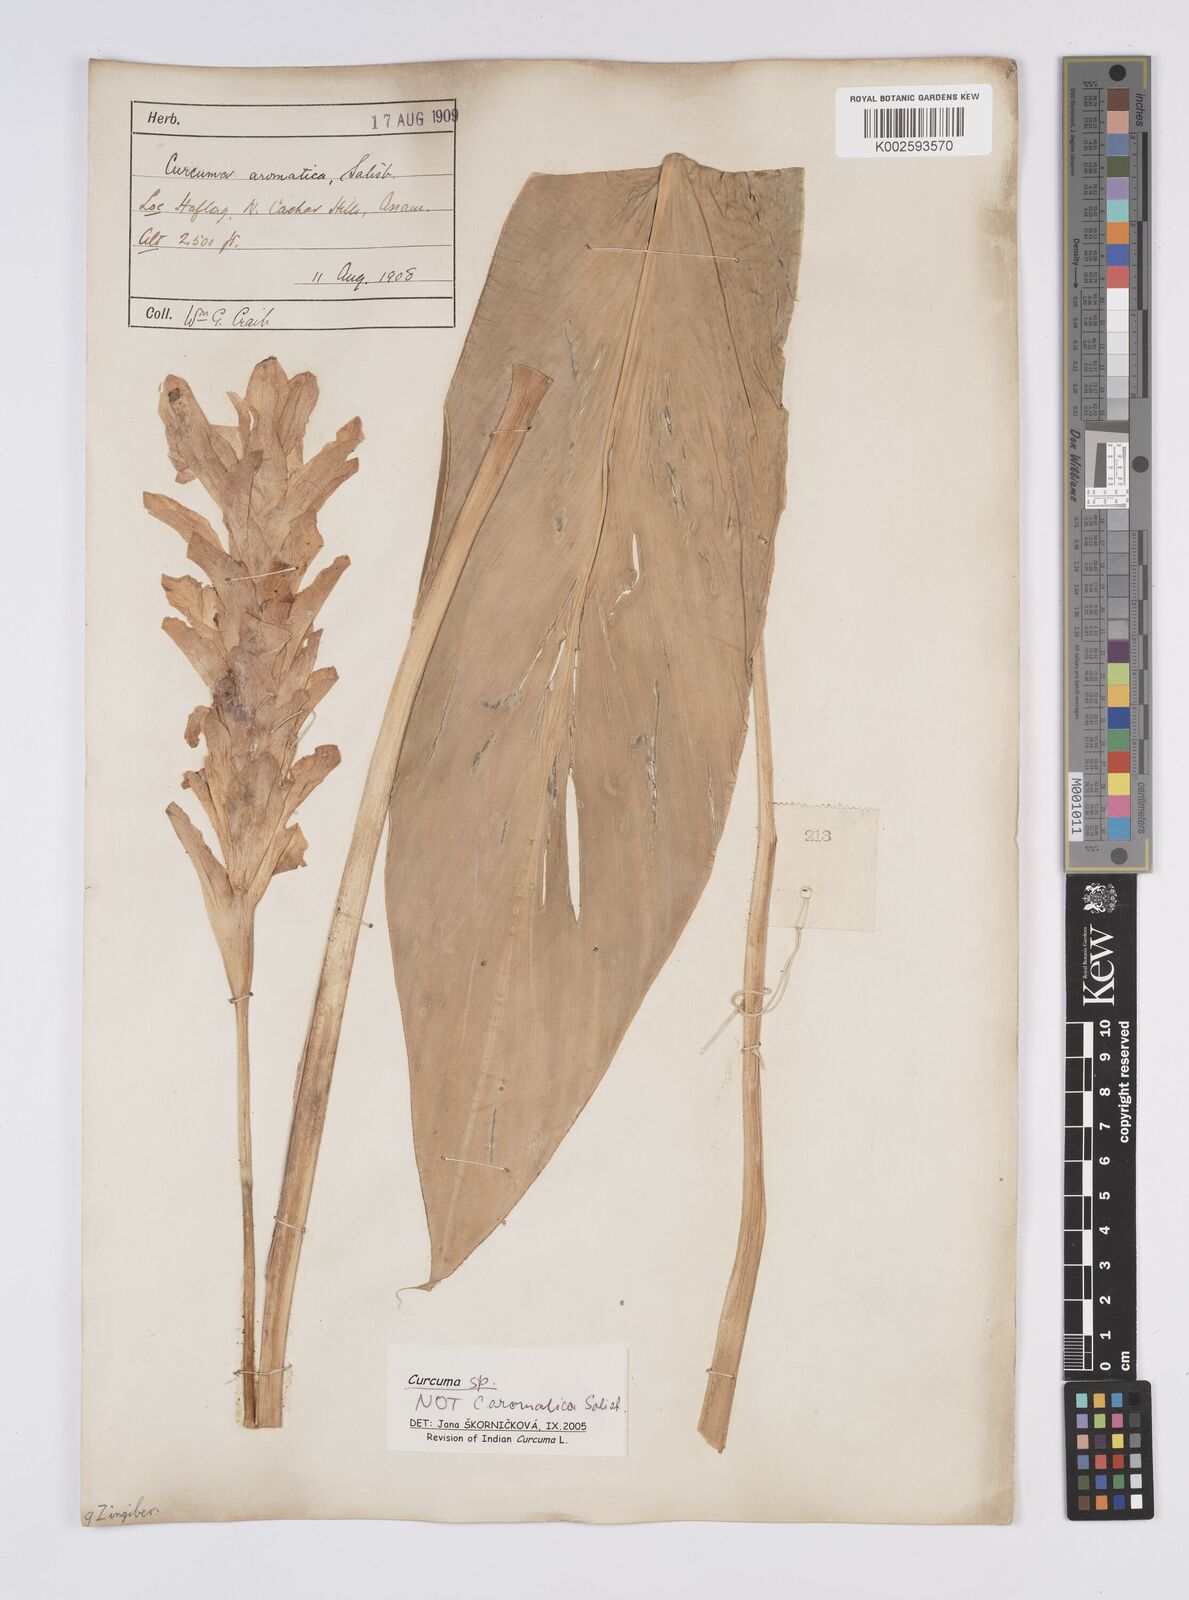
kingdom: Plantae
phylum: Tracheophyta
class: Liliopsida
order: Zingiberales
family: Zingiberaceae
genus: Curcuma
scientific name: Curcuma aromatica
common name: Wild turmeric
